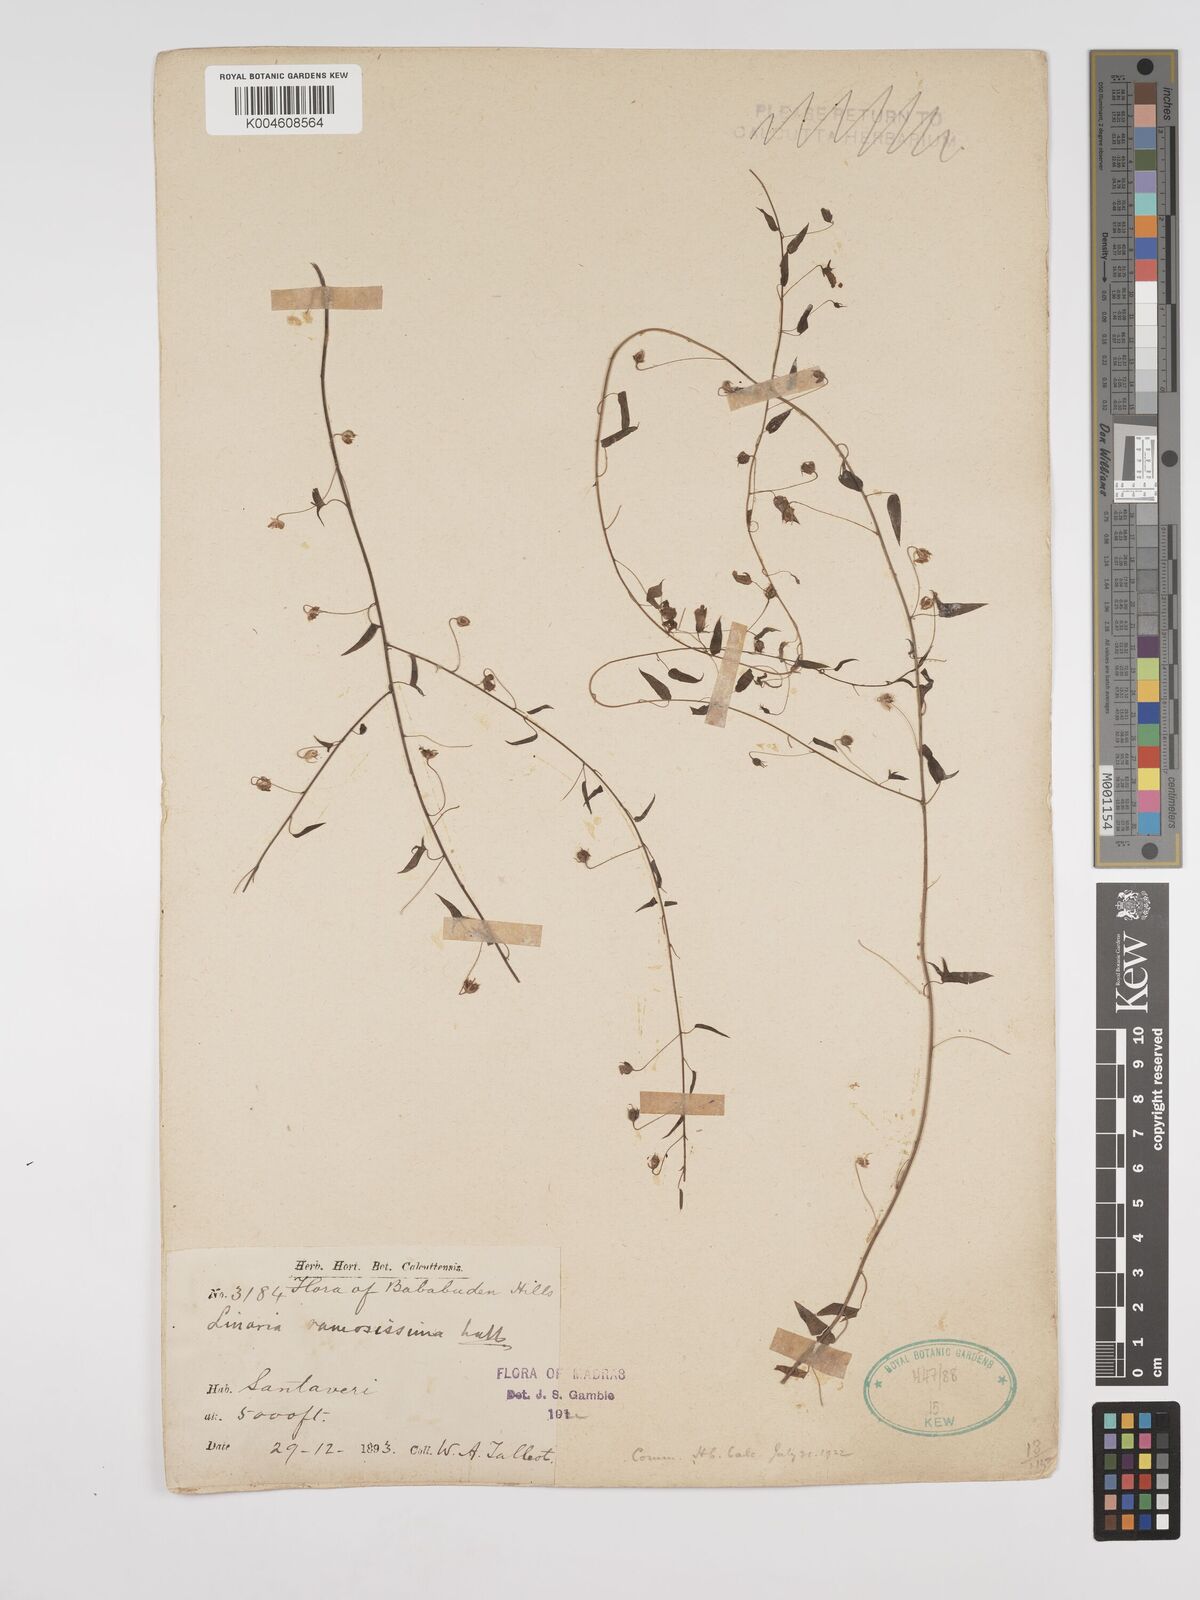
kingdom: Plantae
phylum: Tracheophyta
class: Magnoliopsida
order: Lamiales
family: Plantaginaceae
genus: Nanorrhinum
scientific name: Nanorrhinum ramosissimum
